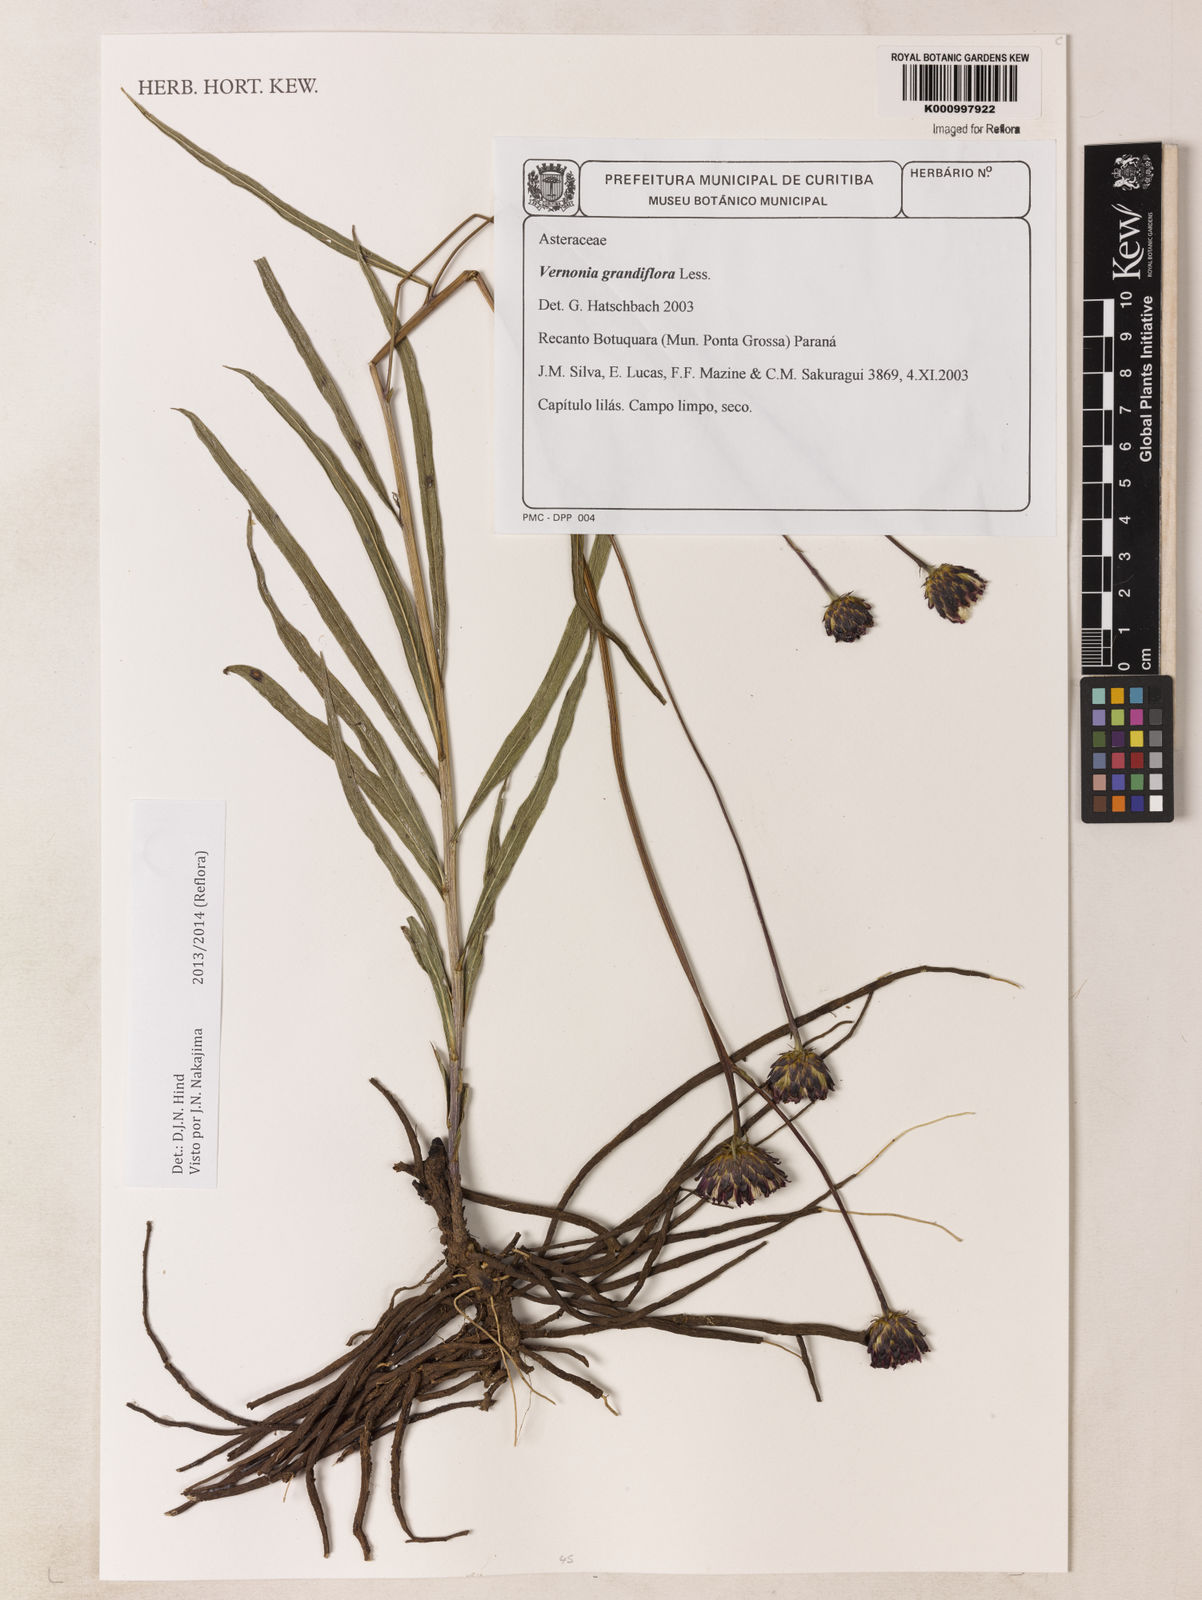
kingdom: Plantae
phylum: Tracheophyta
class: Magnoliopsida
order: Asterales
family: Asteraceae
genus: Lessingianthus
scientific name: Lessingianthus grandiflorus
